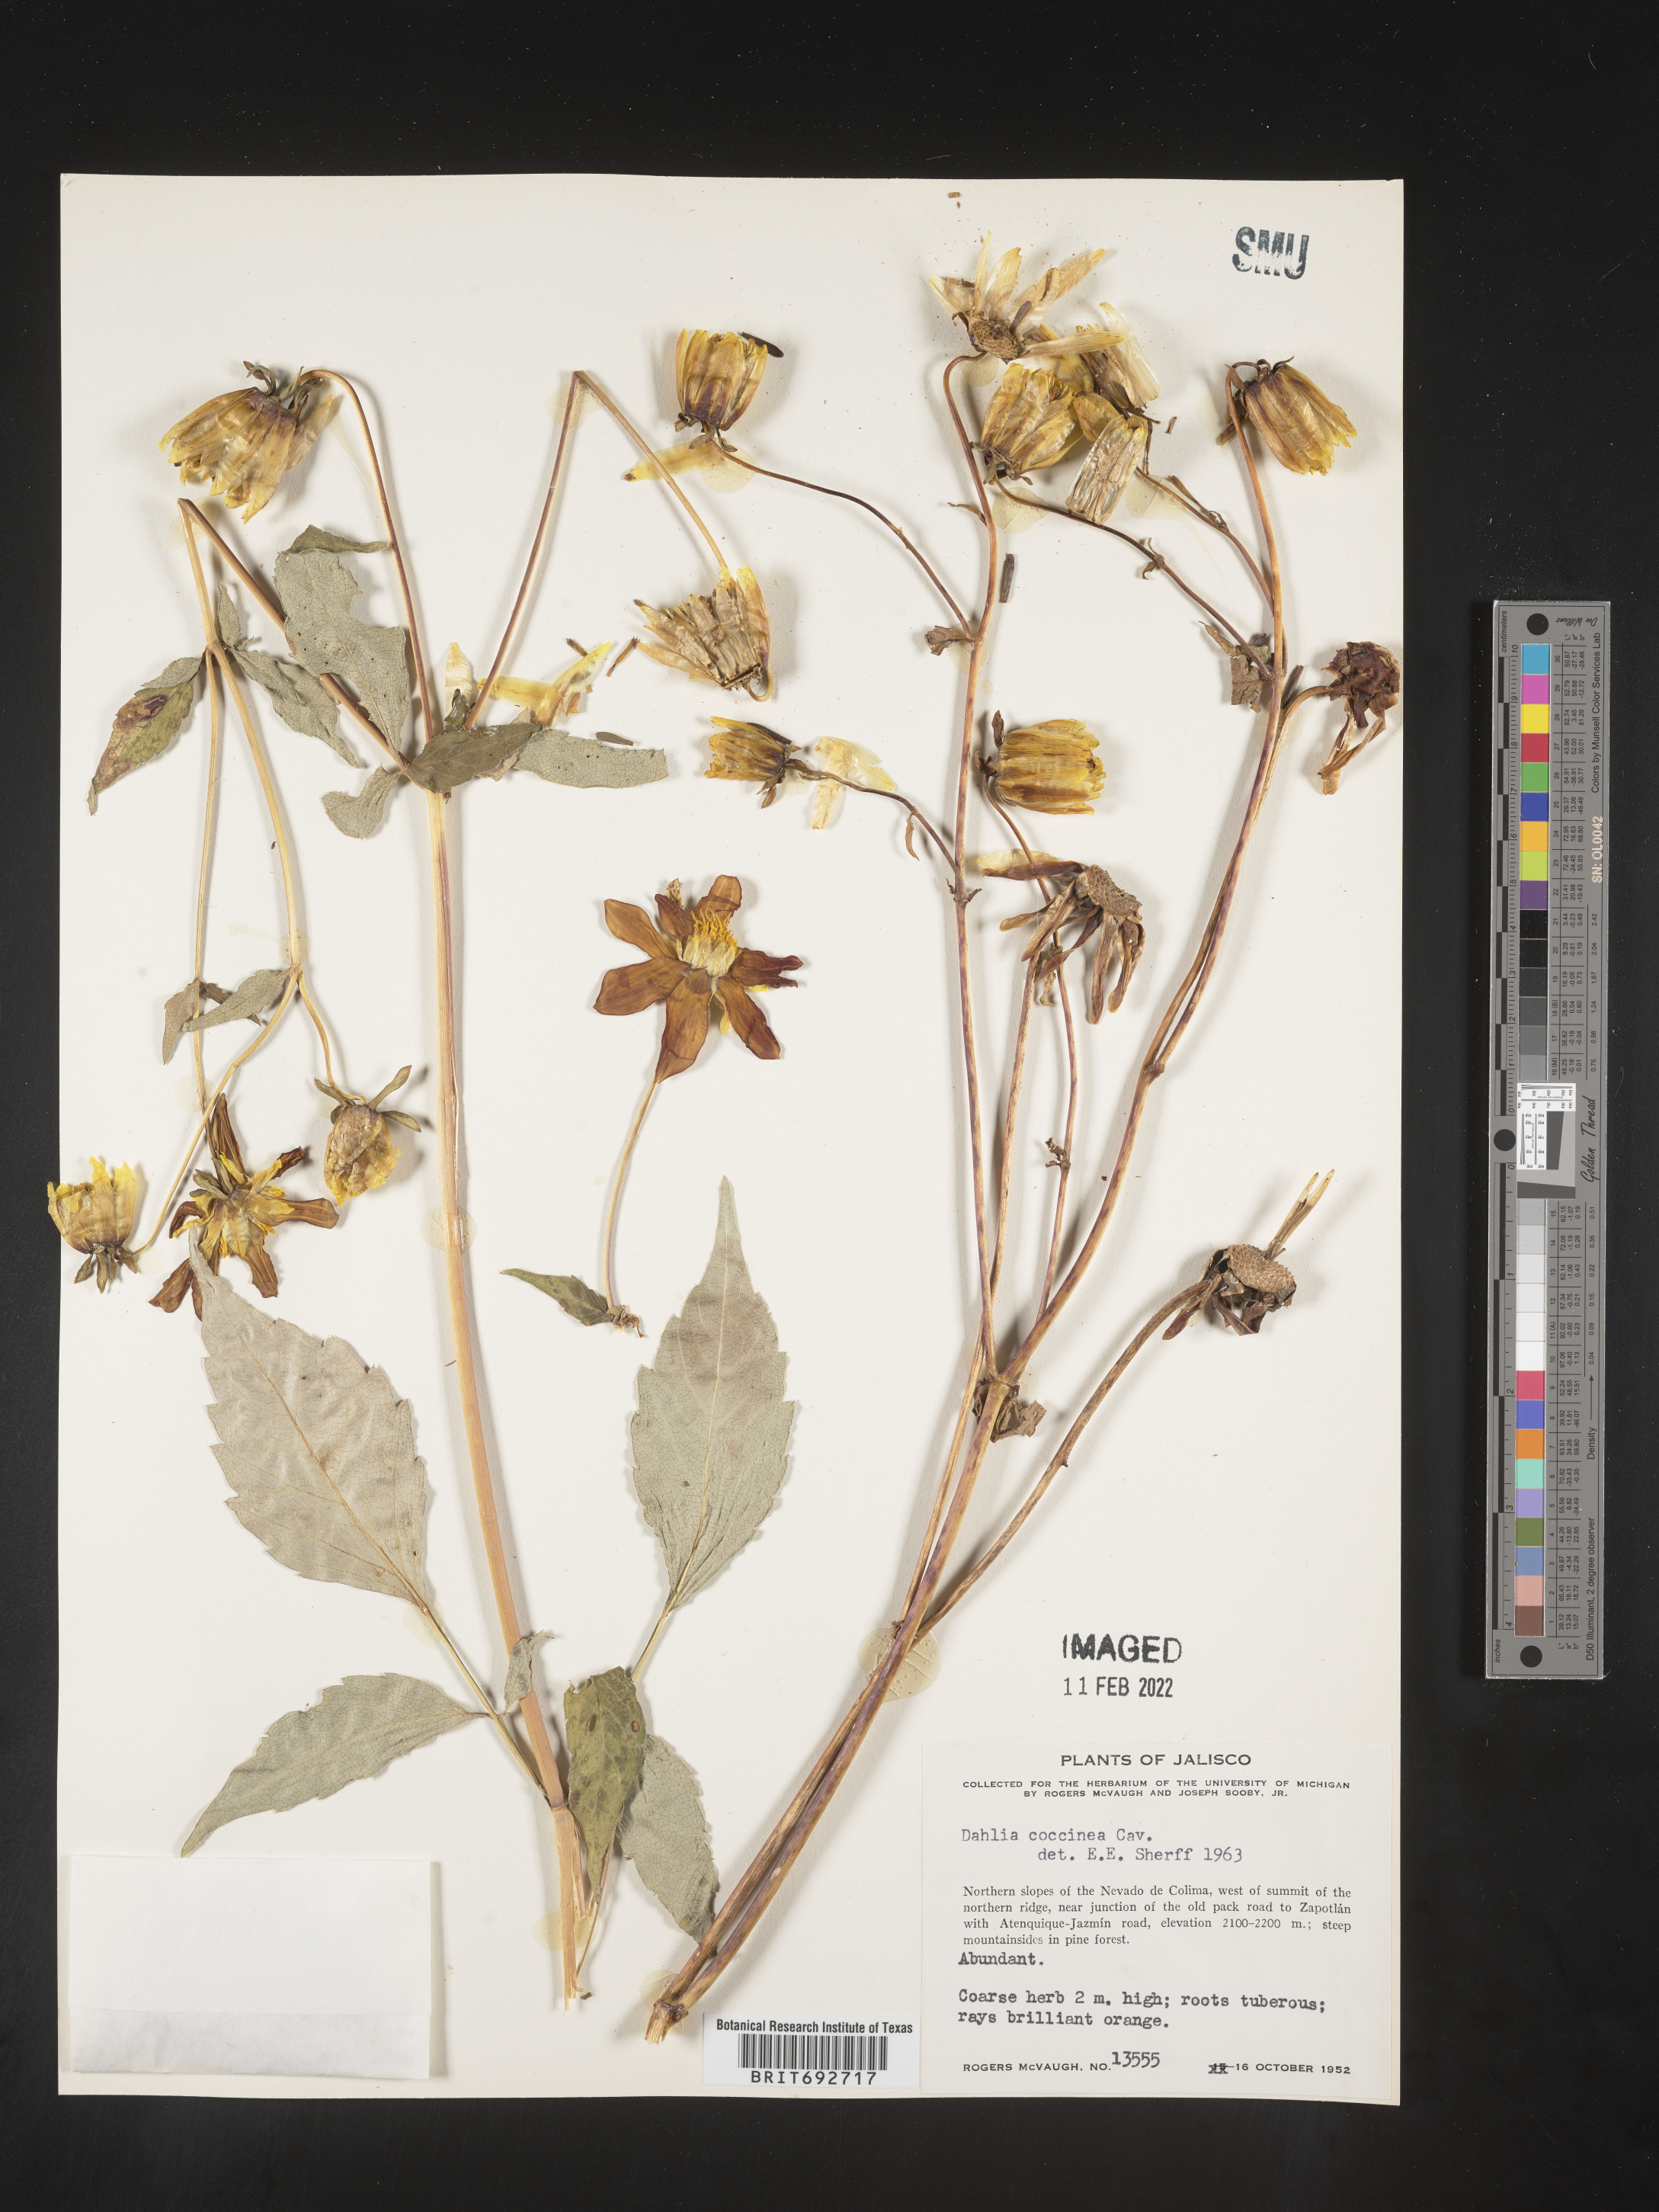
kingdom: Plantae
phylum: Tracheophyta
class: Magnoliopsida
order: Asterales
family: Asteraceae
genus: Dahlia
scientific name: Dahlia
